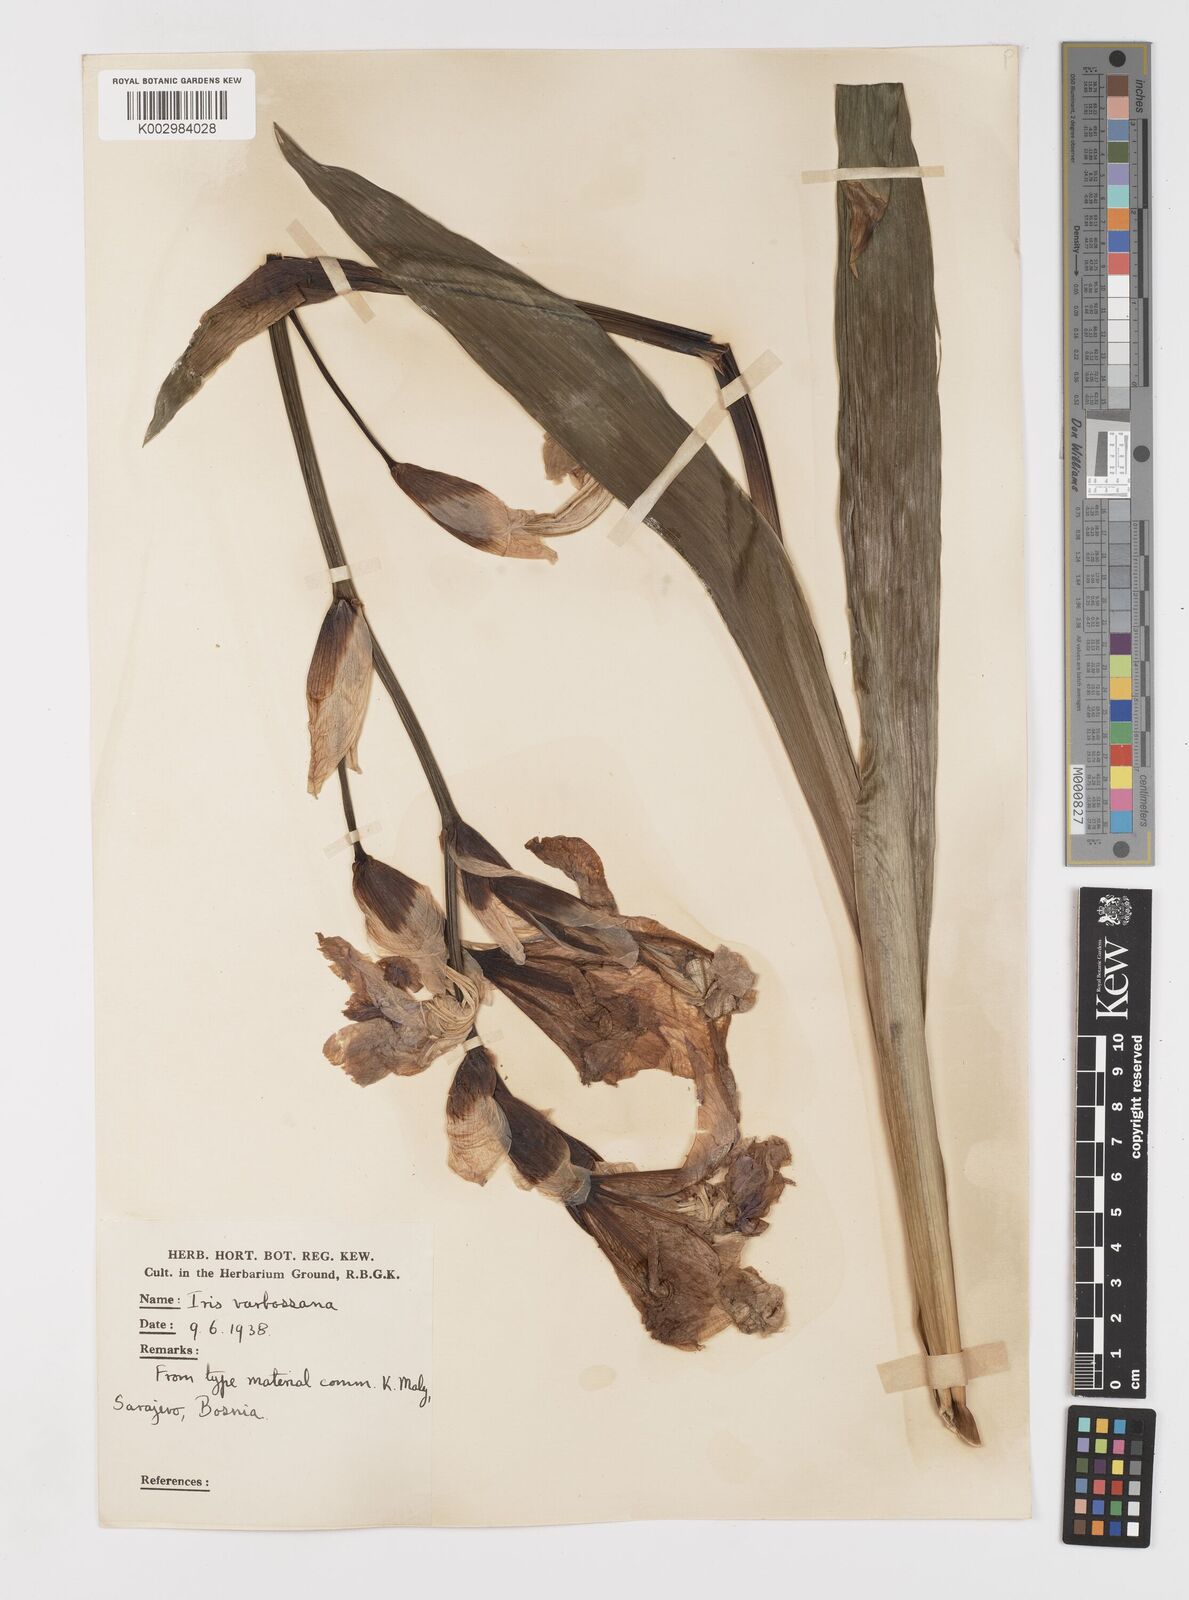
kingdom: Plantae
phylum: Tracheophyta
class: Liliopsida
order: Asparagales
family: Iridaceae
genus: Iris
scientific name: Iris germanica
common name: German iris
